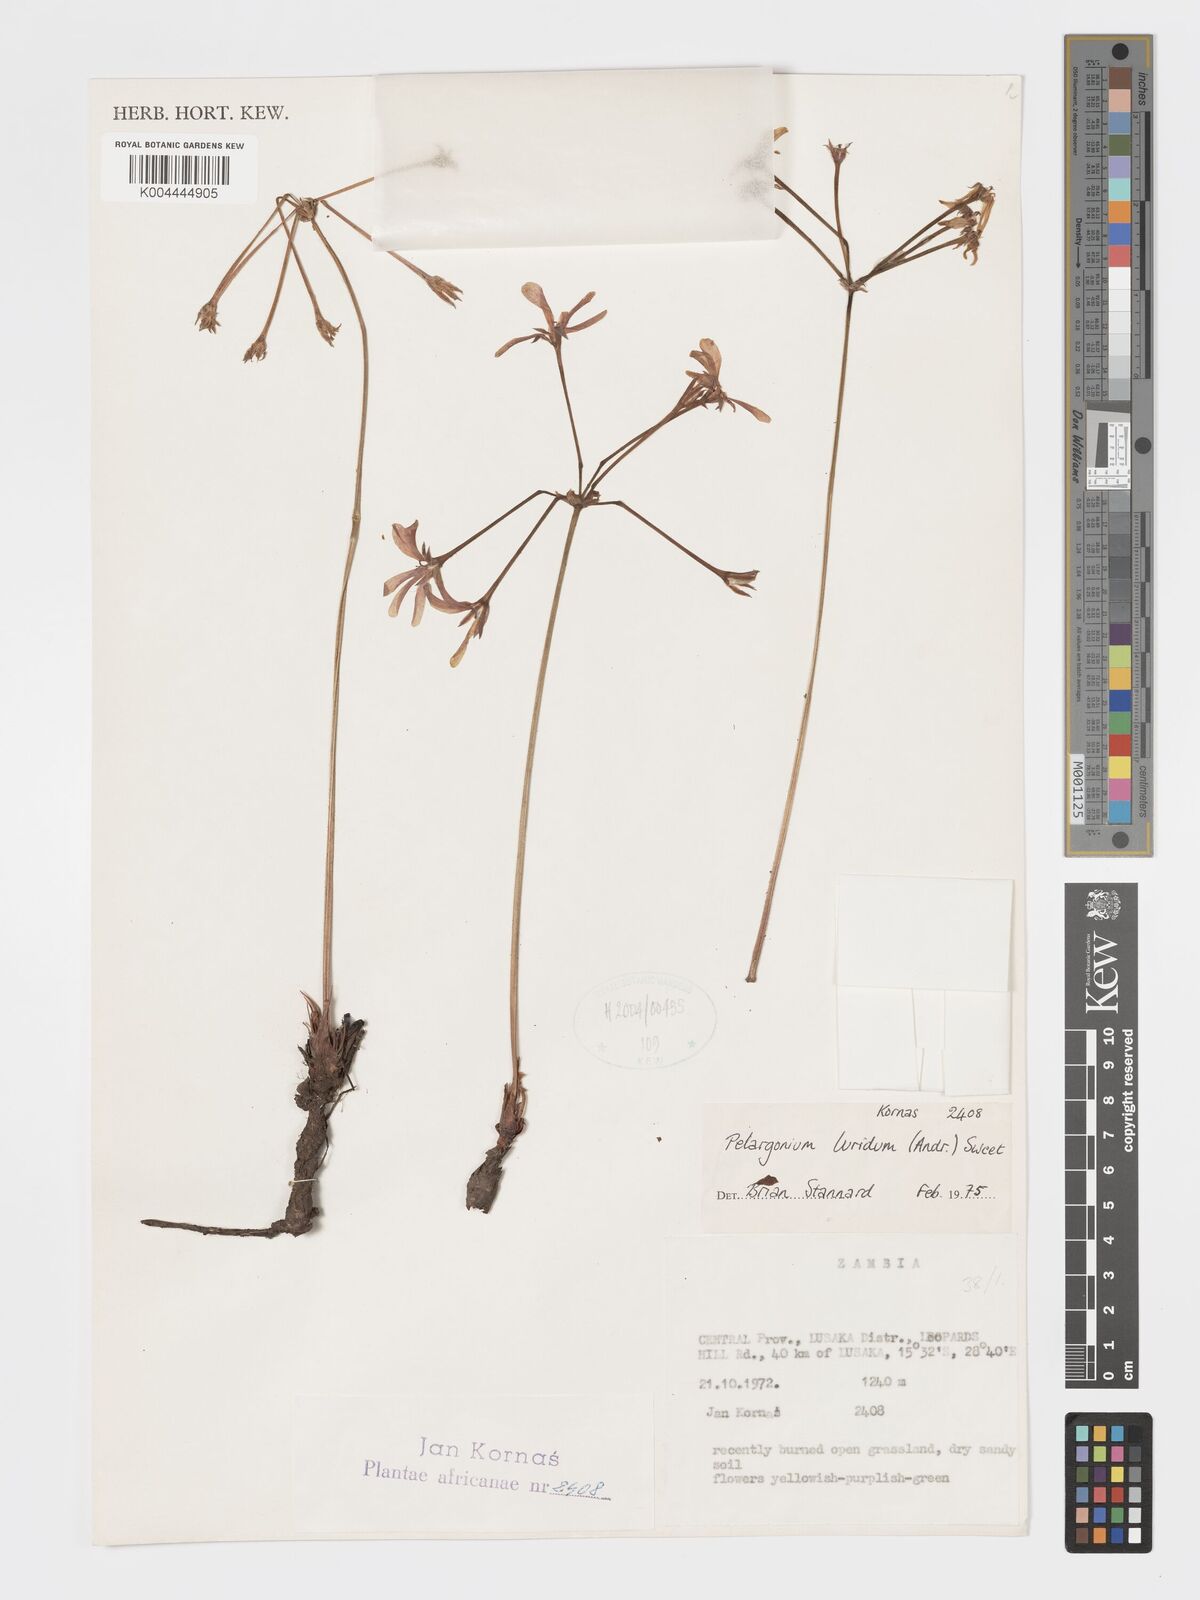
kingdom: Plantae
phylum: Tracheophyta
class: Magnoliopsida
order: Geraniales
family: Geraniaceae
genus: Pelargonium
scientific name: Pelargonium luridum
